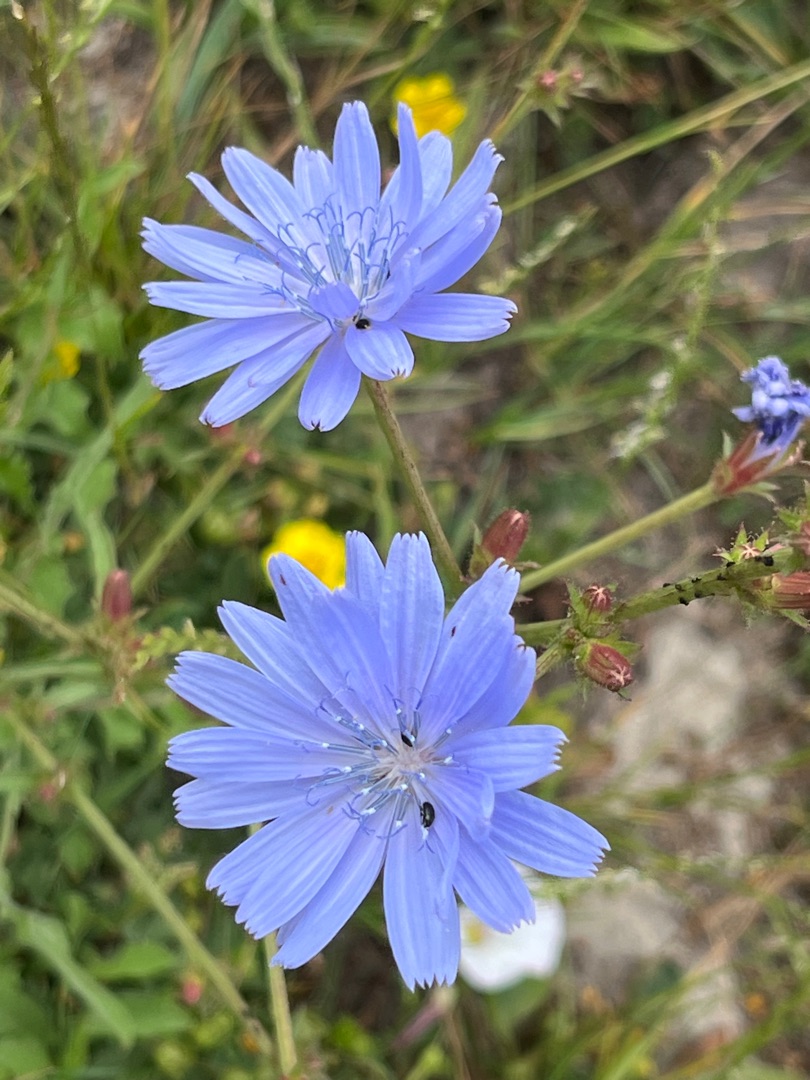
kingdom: Plantae
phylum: Tracheophyta
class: Magnoliopsida
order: Asterales
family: Asteraceae
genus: Cichorium
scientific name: Cichorium intybus
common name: Cikorie
